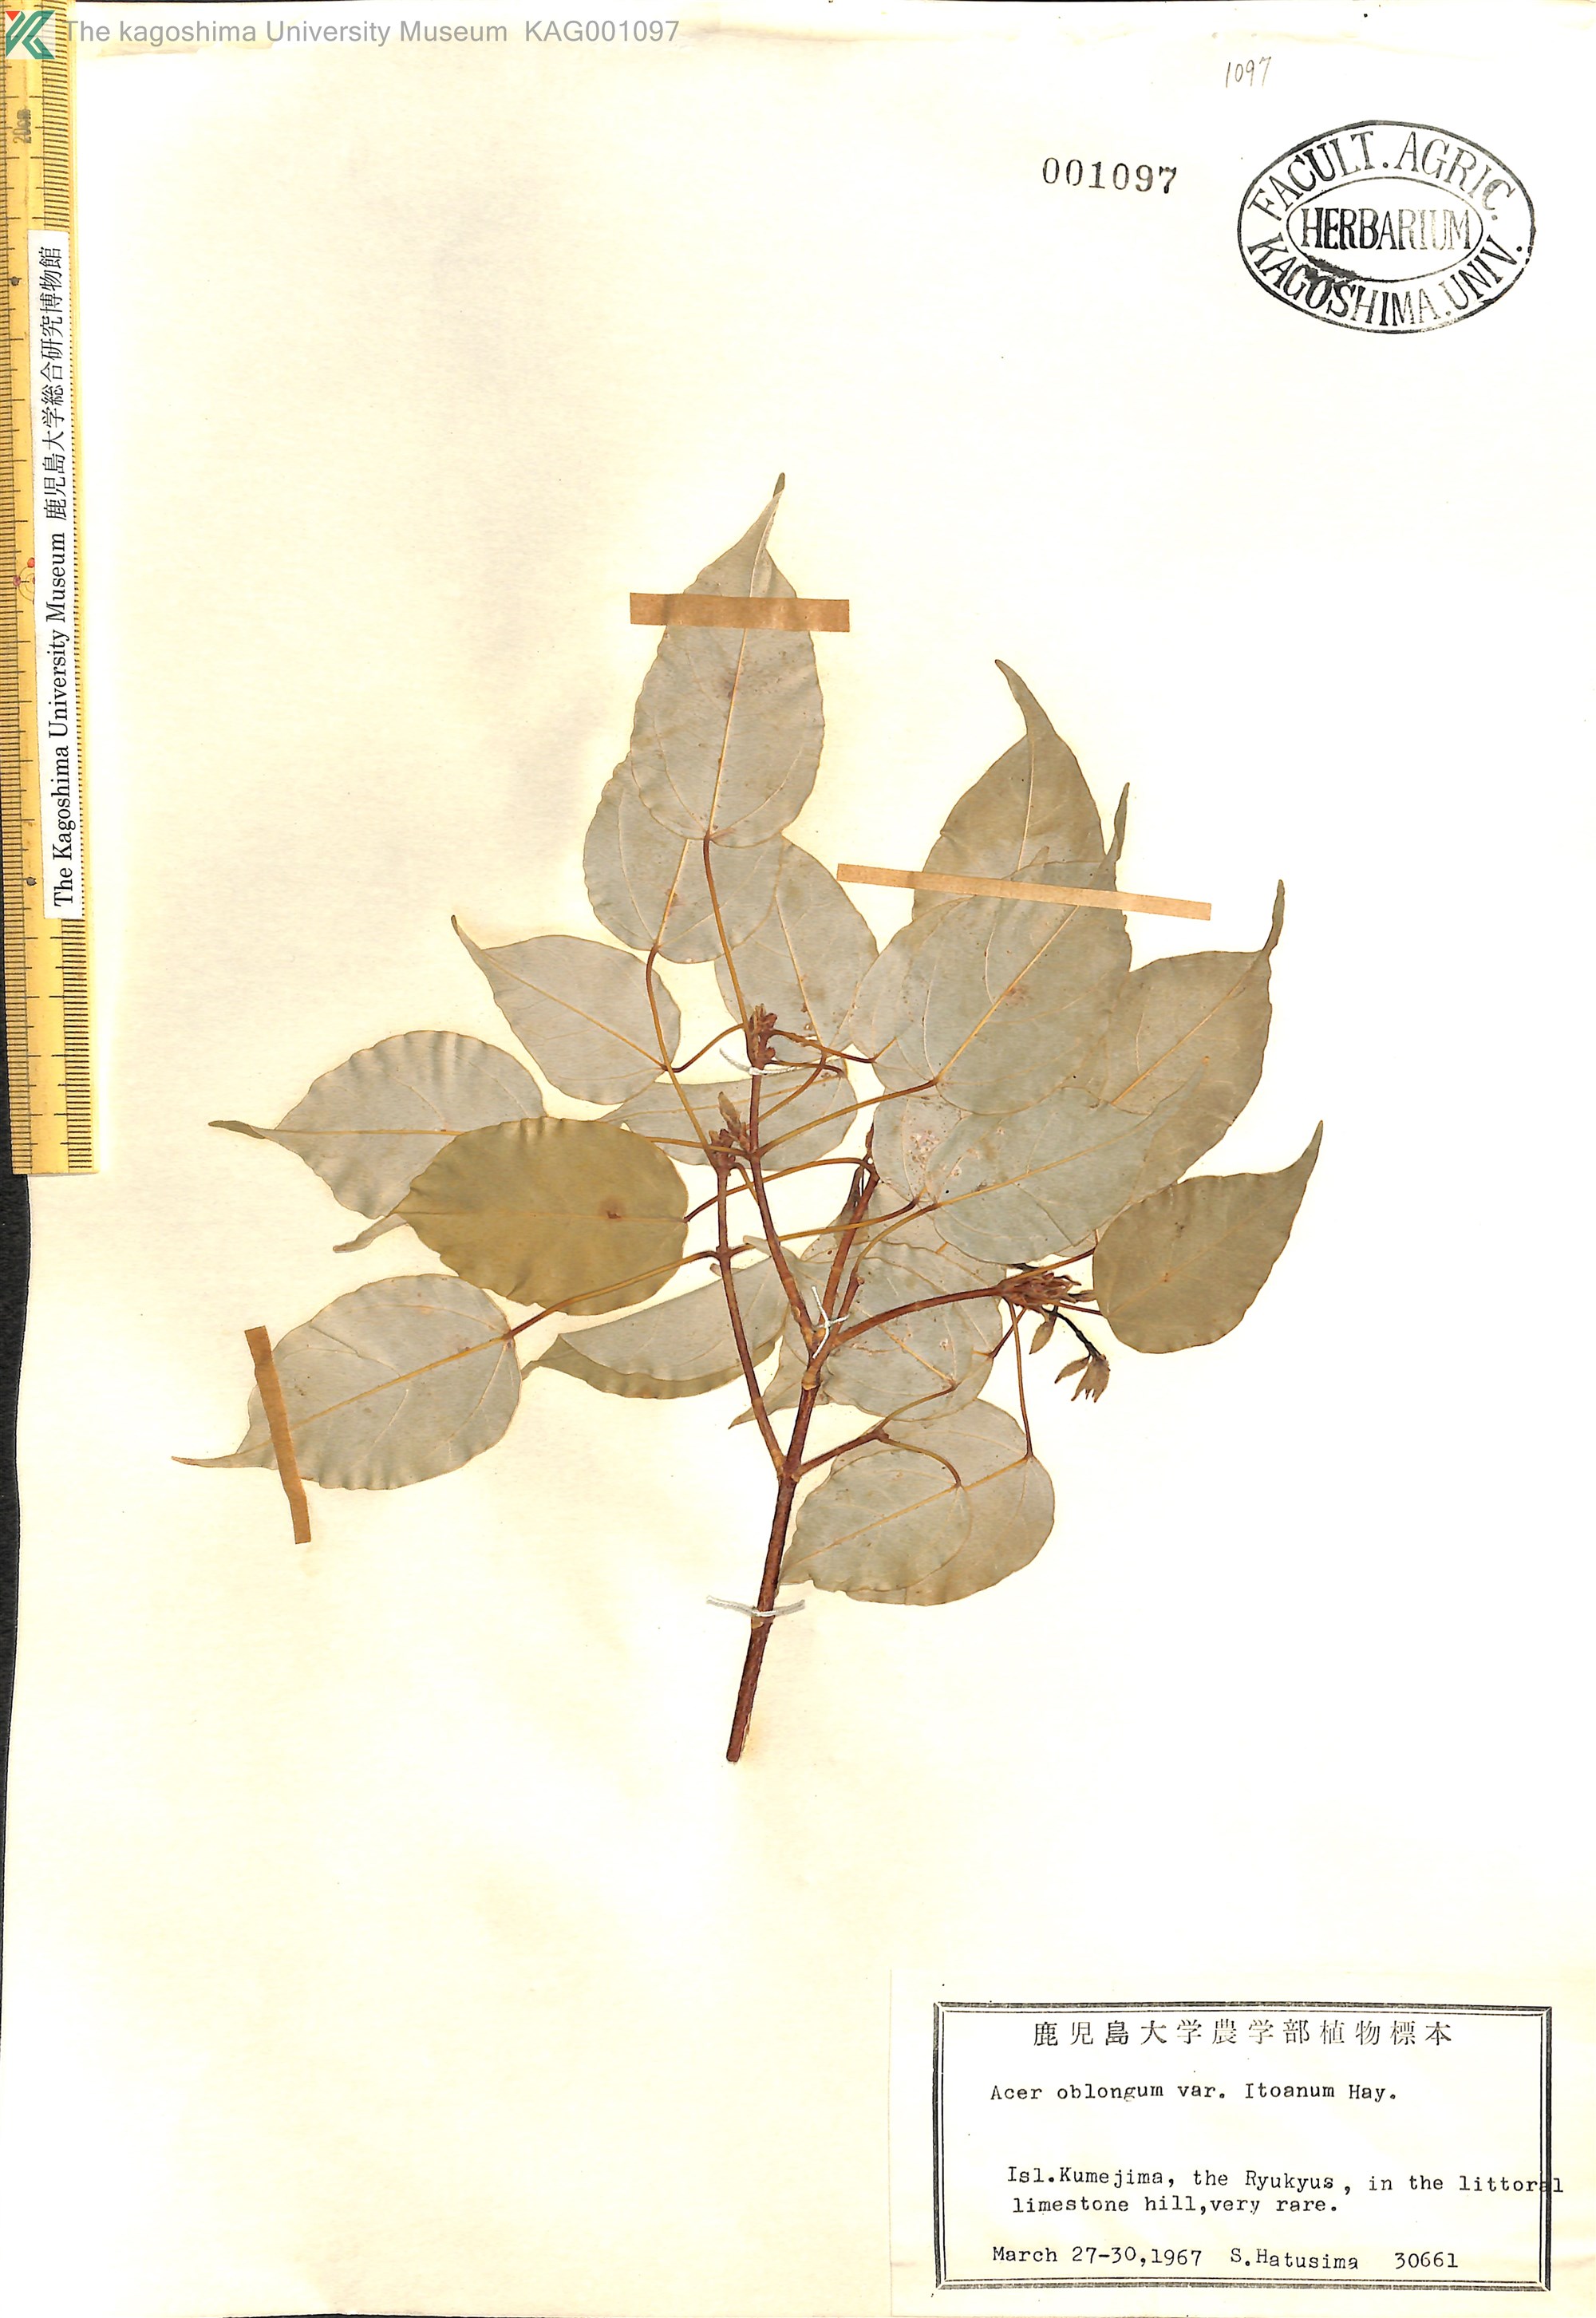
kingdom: Plantae
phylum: Tracheophyta
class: Magnoliopsida
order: Sapindales
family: Sapindaceae
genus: Acer
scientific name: Acer oblongum
